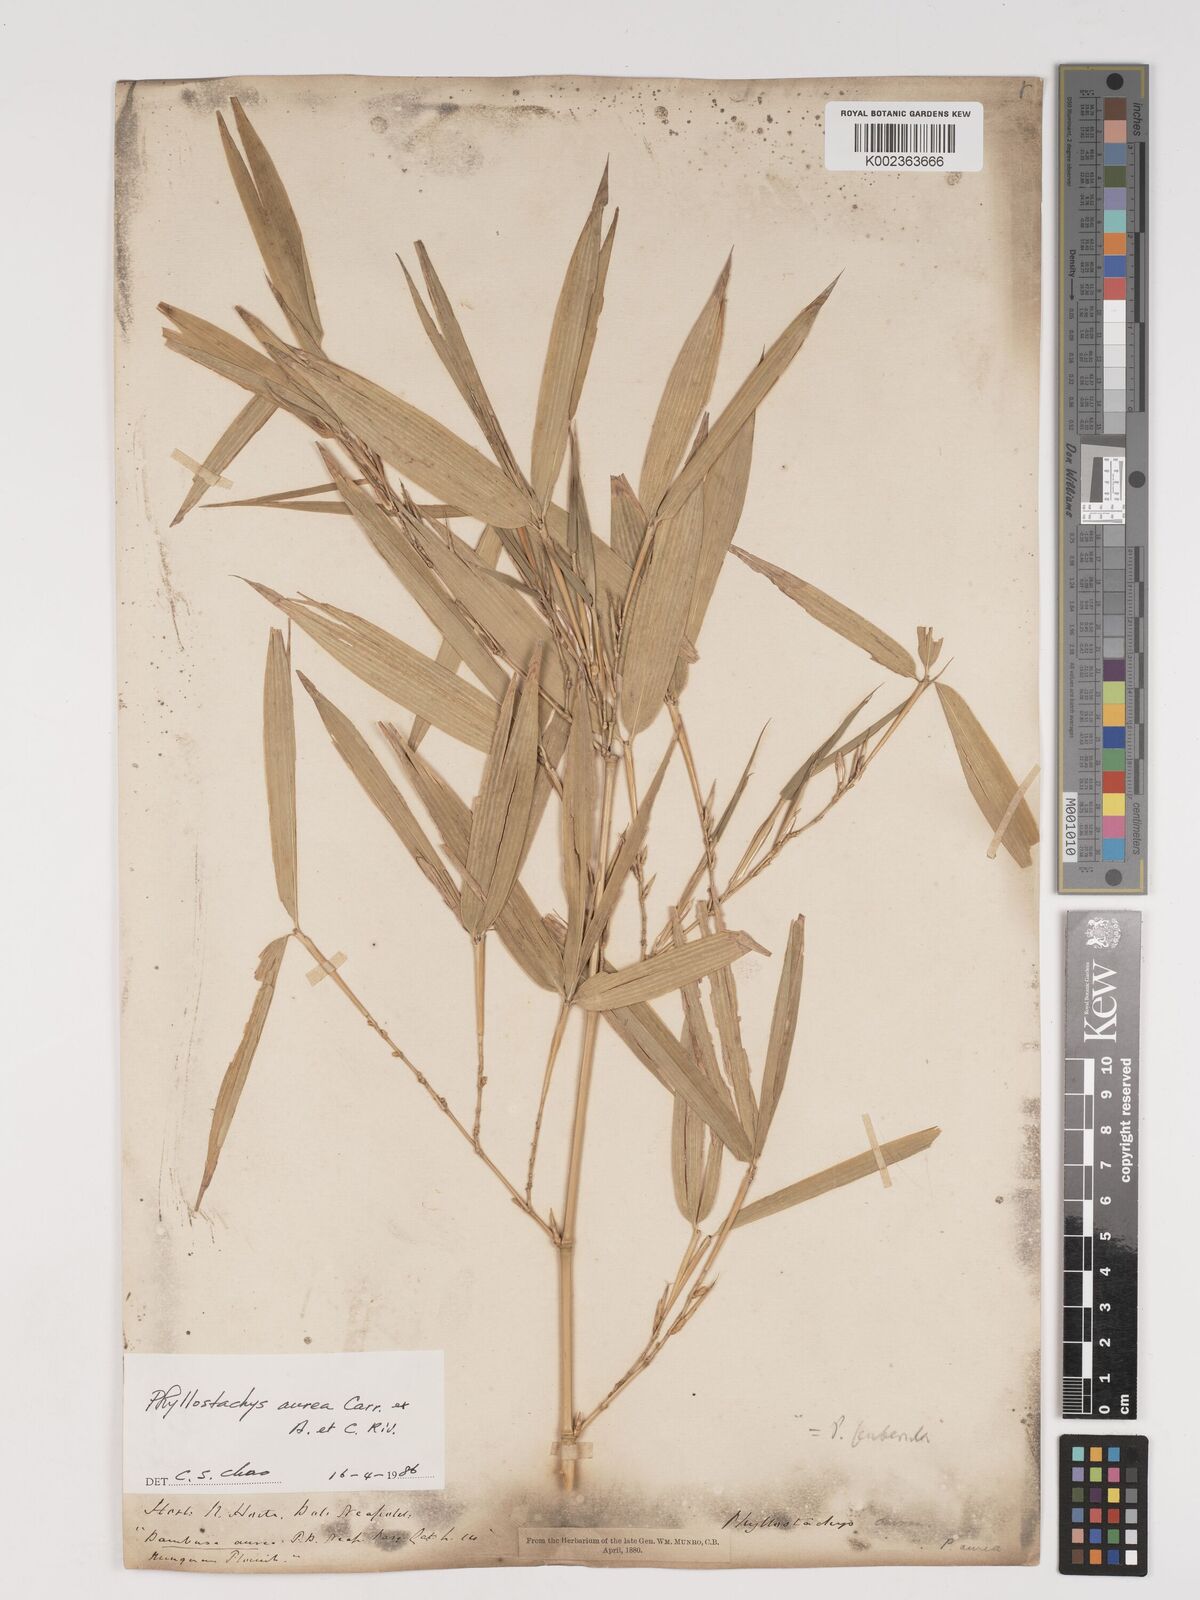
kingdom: Plantae
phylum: Tracheophyta
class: Liliopsida
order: Poales
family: Poaceae
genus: Phyllostachys
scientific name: Phyllostachys aurea
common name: Golden bamboo
